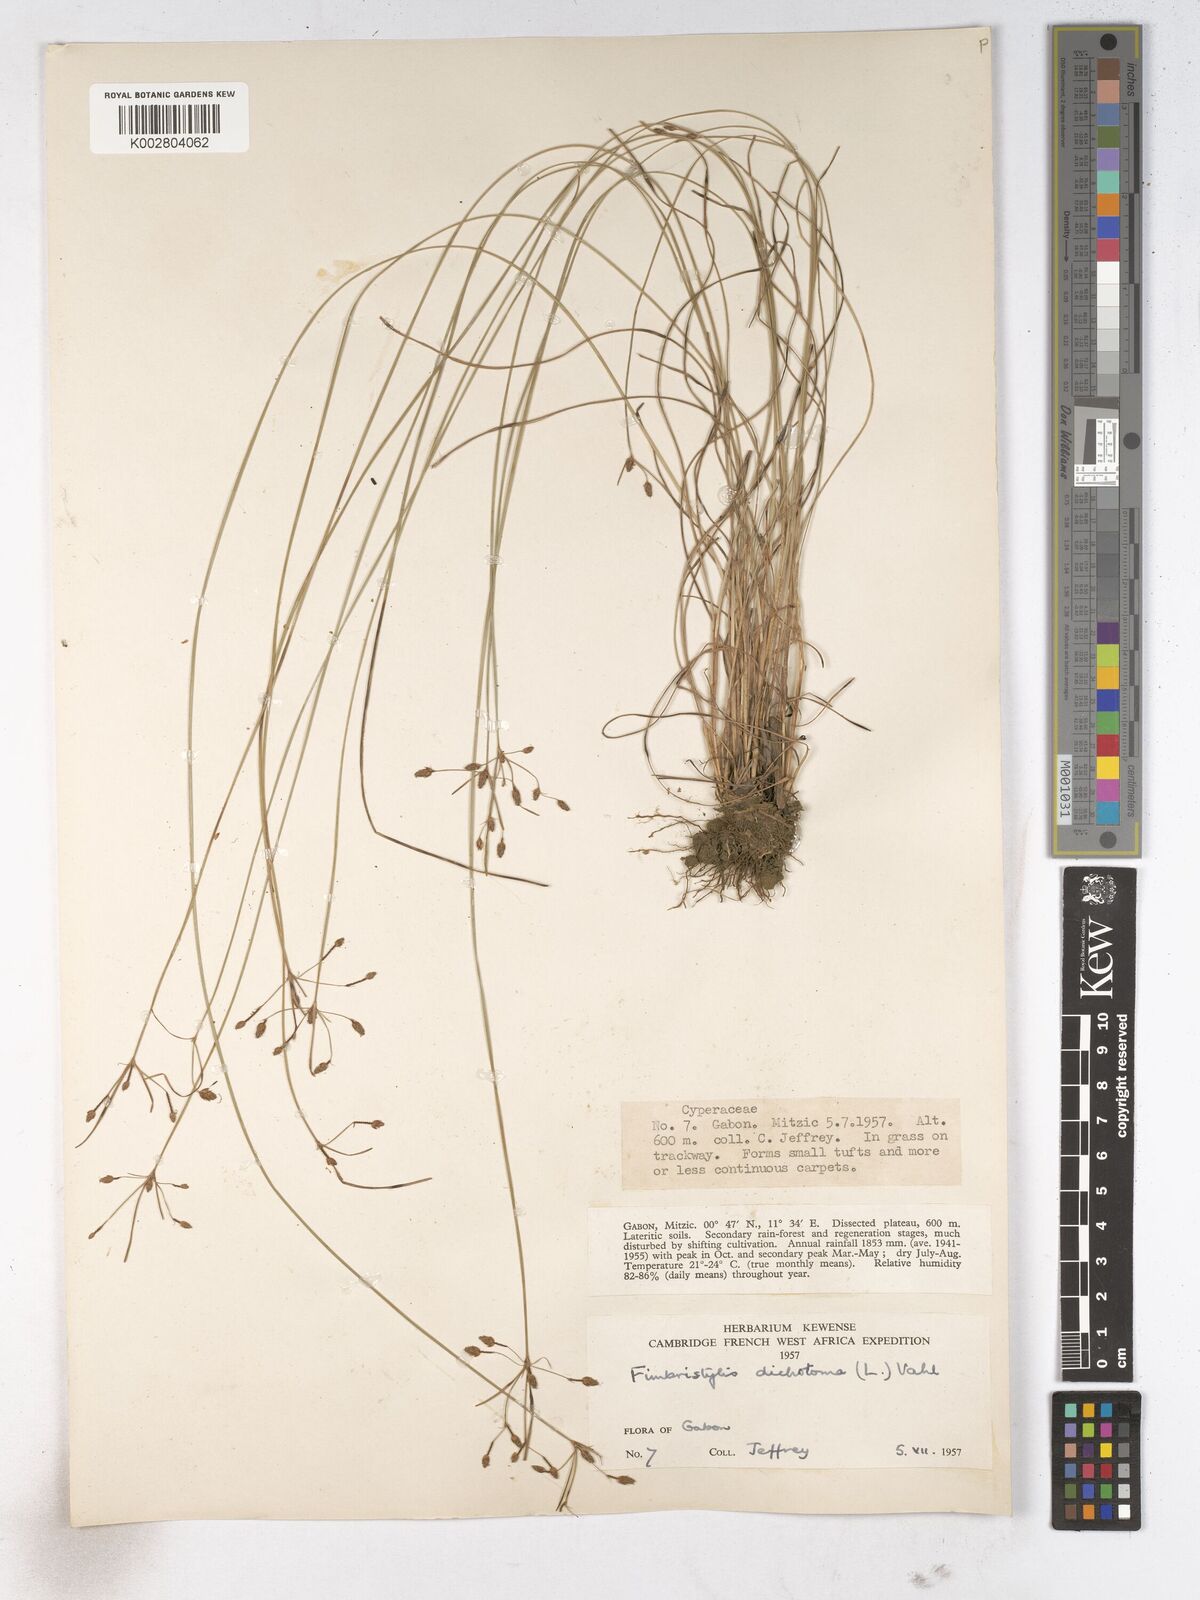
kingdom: Plantae
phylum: Tracheophyta
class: Liliopsida
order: Poales
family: Cyperaceae
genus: Fimbristylis
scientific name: Fimbristylis dichotoma
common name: Forked fimbry
